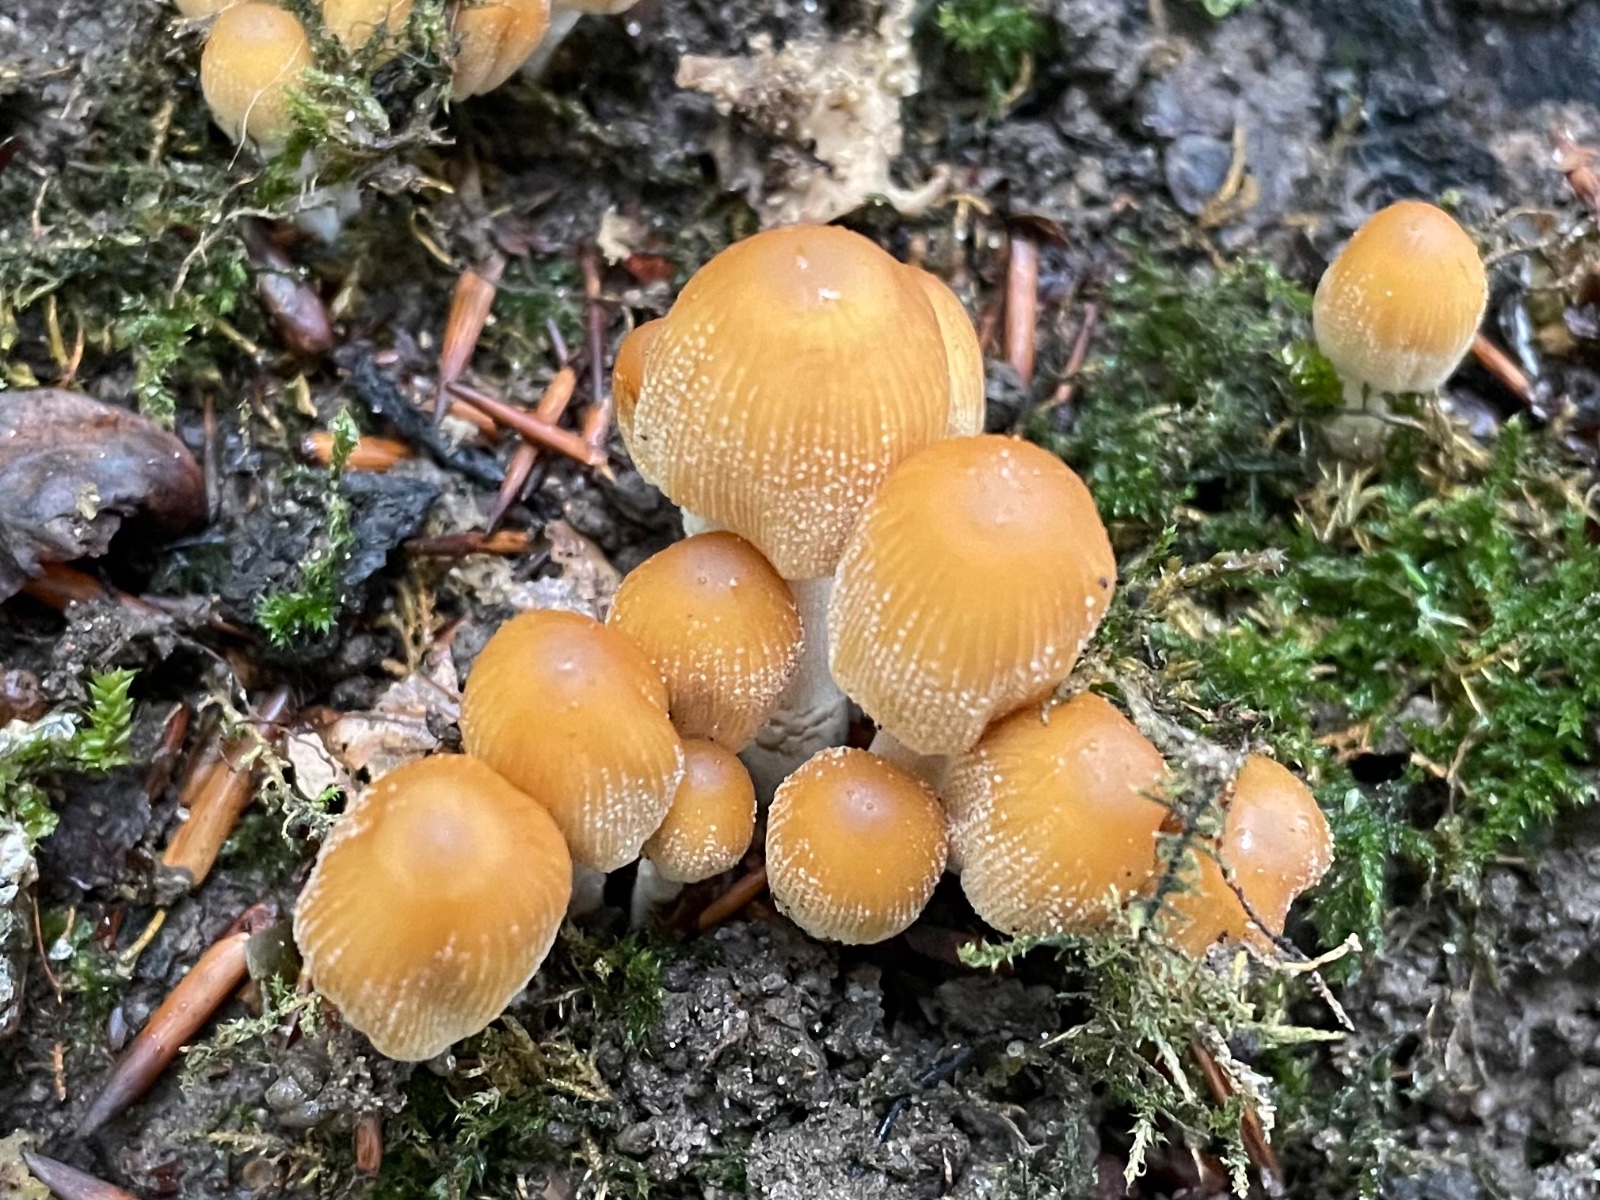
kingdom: Fungi
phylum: Basidiomycota
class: Agaricomycetes
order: Agaricales
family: Psathyrellaceae
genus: Coprinellus
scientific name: Coprinellus micaceus
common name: glimmer-blækhat
